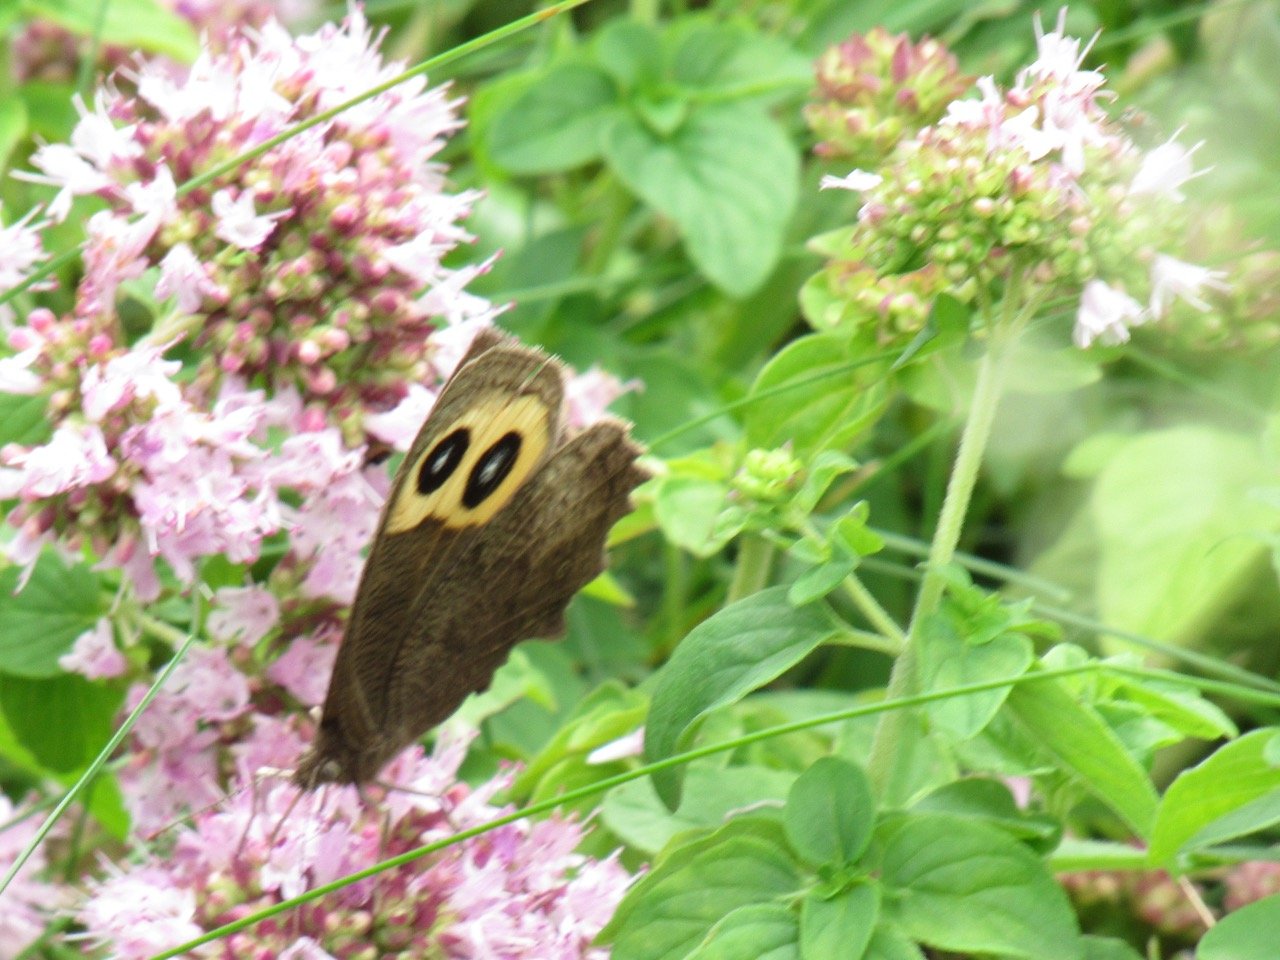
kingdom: Animalia
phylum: Arthropoda
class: Insecta
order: Lepidoptera
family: Nymphalidae
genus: Cercyonis
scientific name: Cercyonis pegala
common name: Common Wood-Nymph
